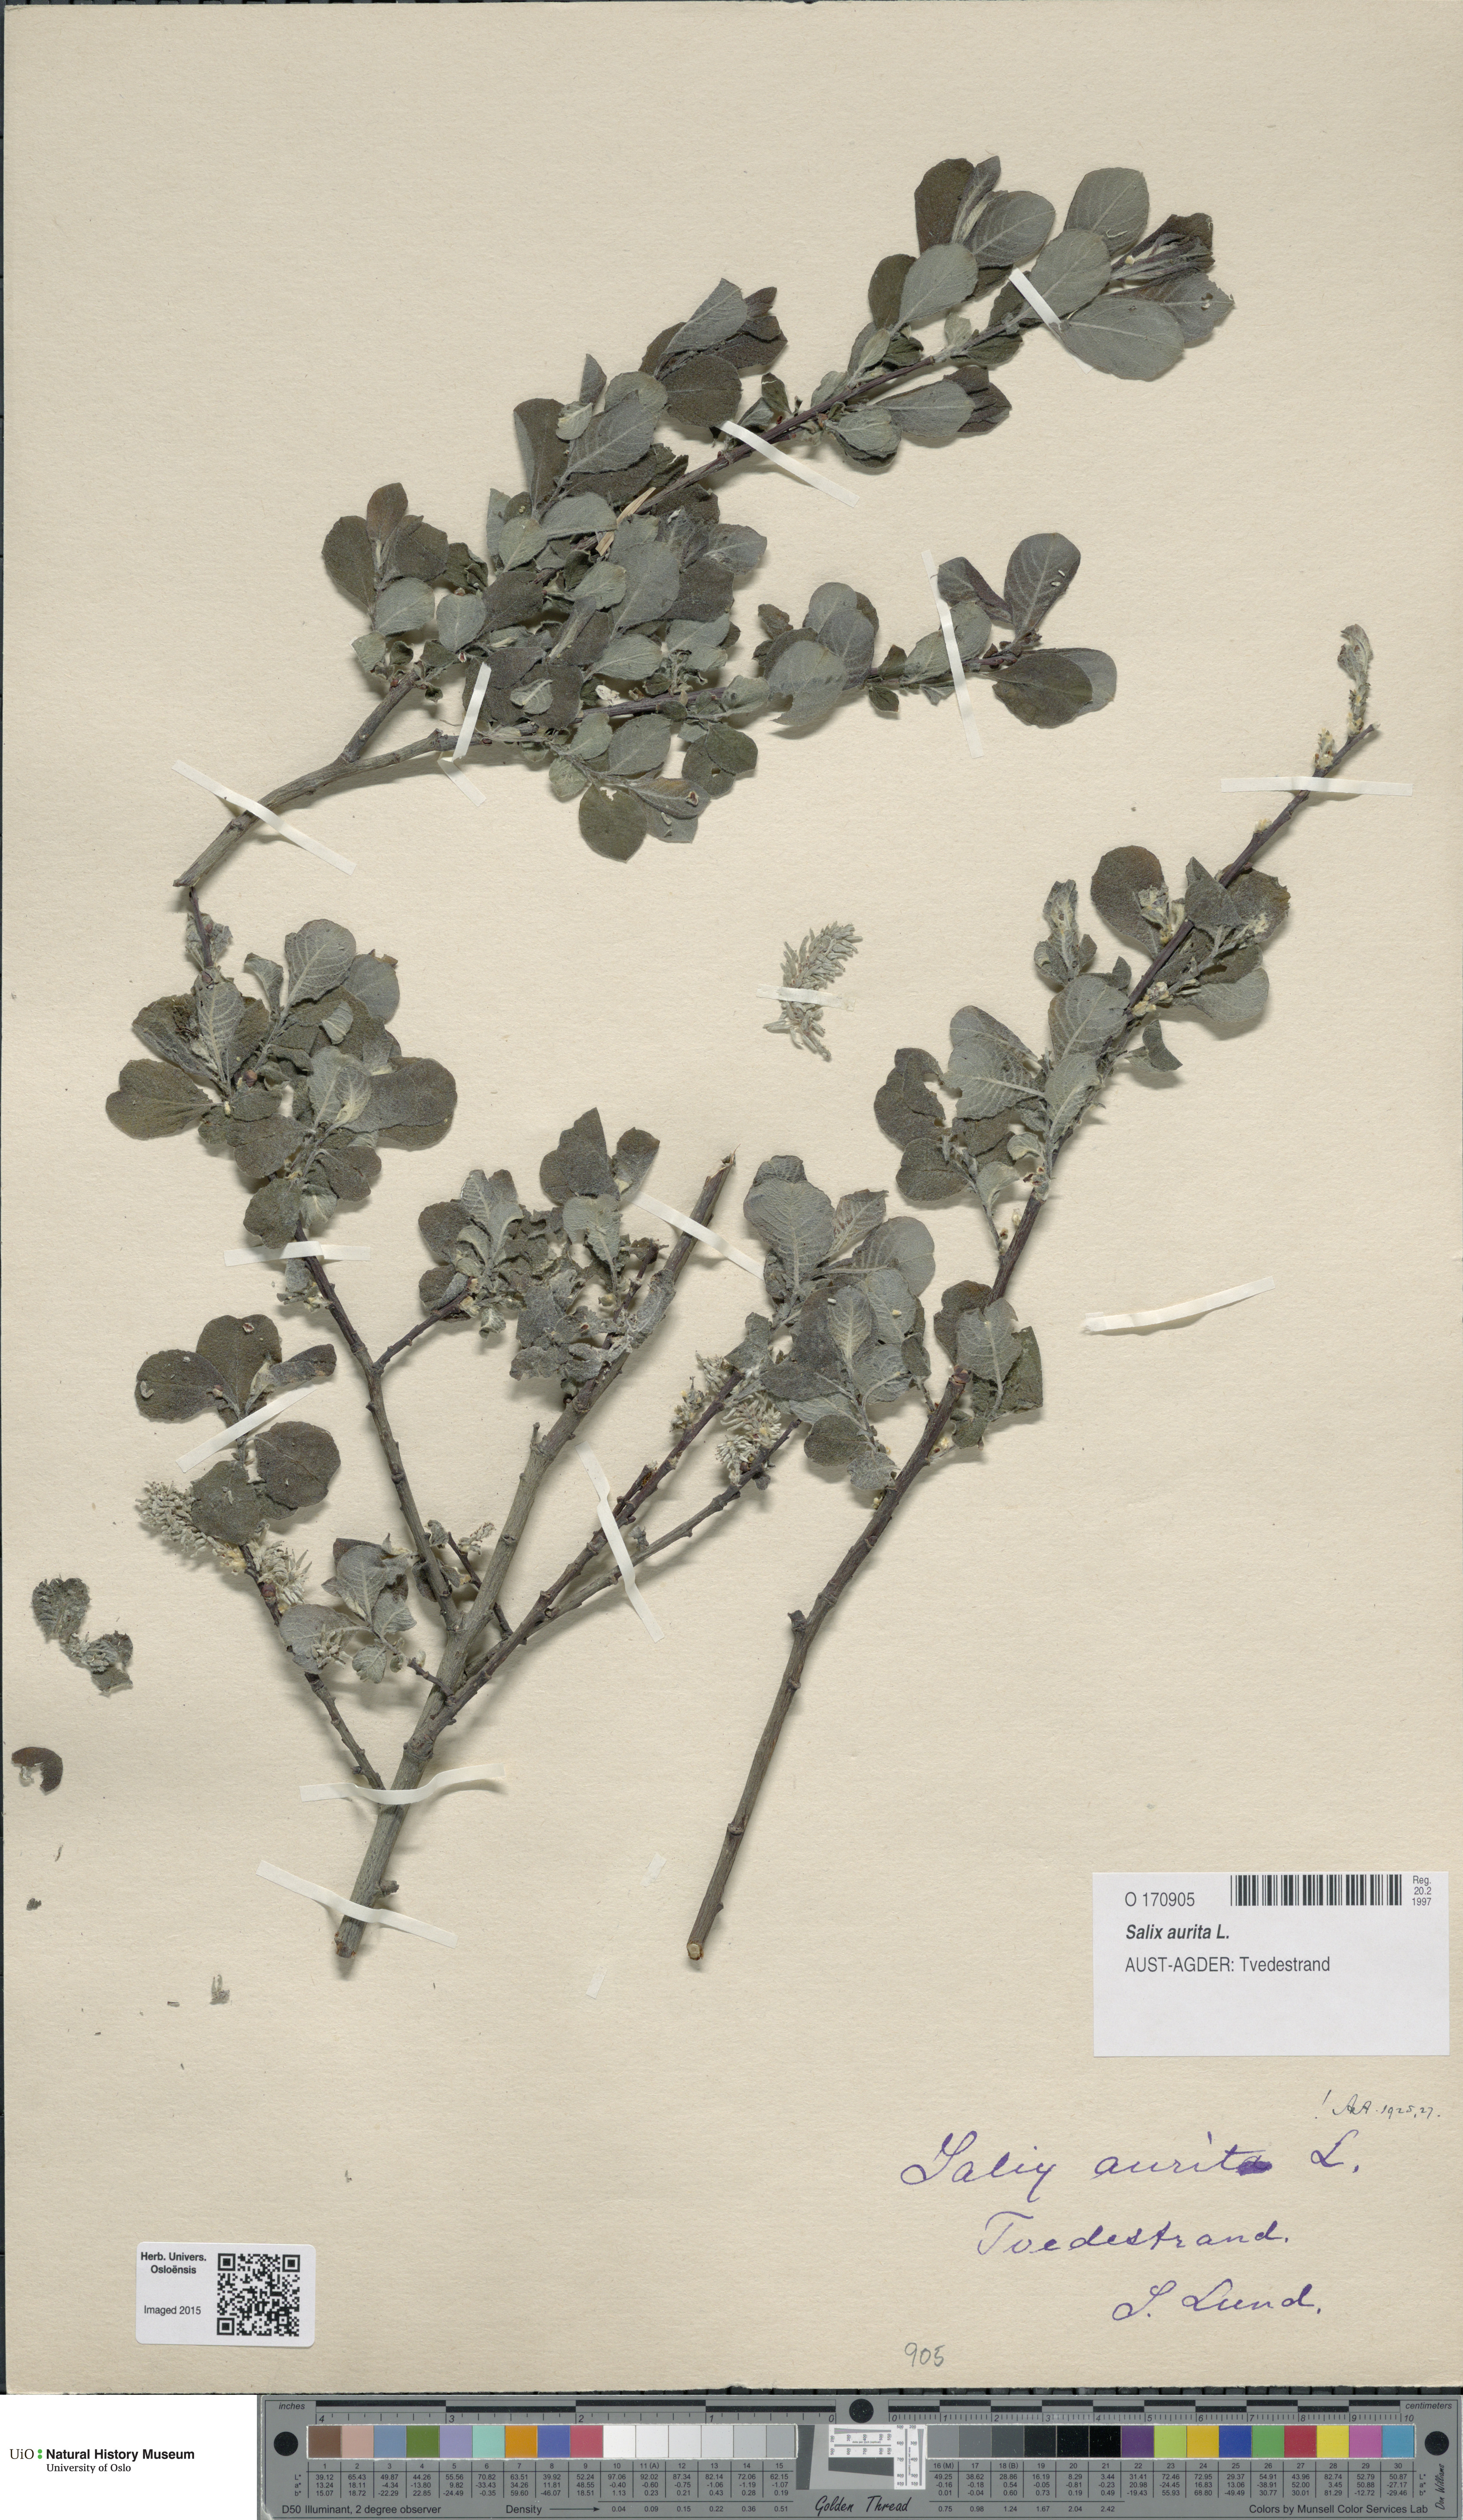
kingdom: Plantae
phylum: Tracheophyta
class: Magnoliopsida
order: Malpighiales
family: Salicaceae
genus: Salix
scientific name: Salix aurita
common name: Eared willow
